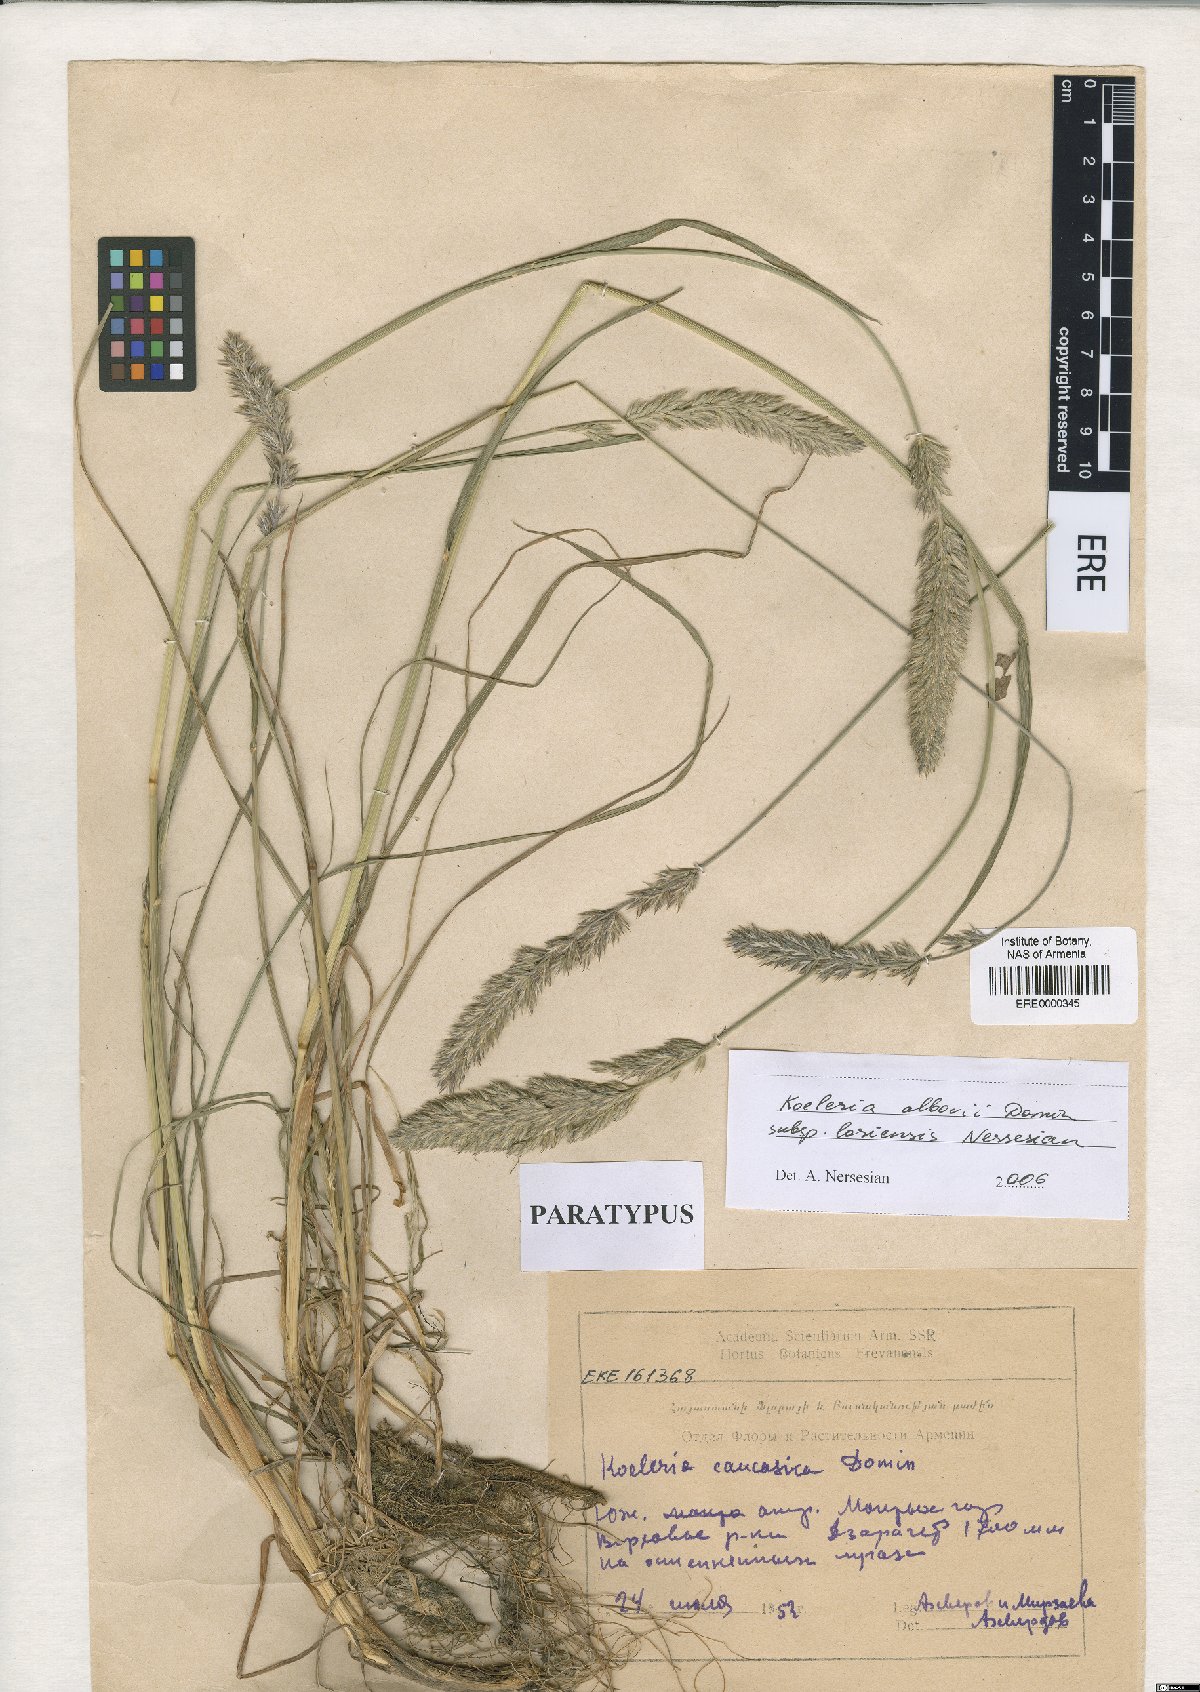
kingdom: Plantae
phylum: Tracheophyta
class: Liliopsida
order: Poales
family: Poaceae
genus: Koeleria
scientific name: Koeleria eriostachya
